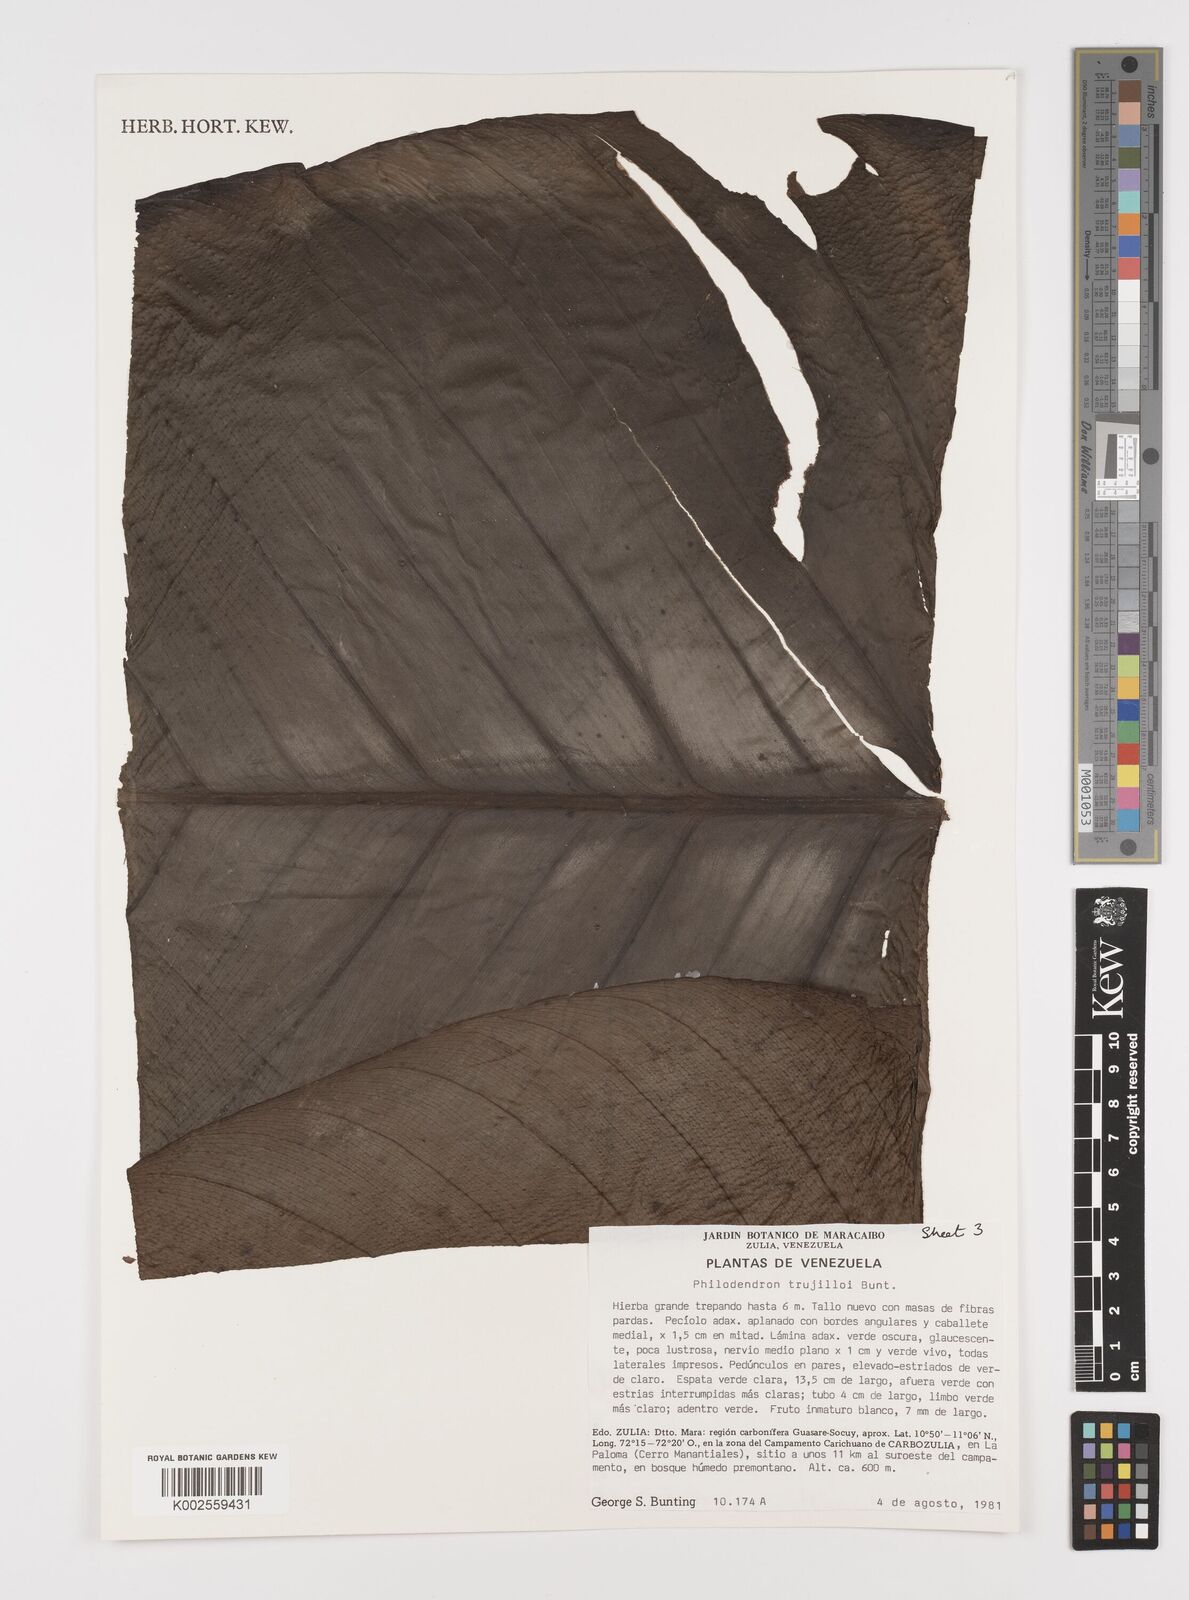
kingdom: Plantae
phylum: Tracheophyta
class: Liliopsida
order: Alismatales
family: Araceae
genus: Philodendron
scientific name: Philodendron trujilloi
